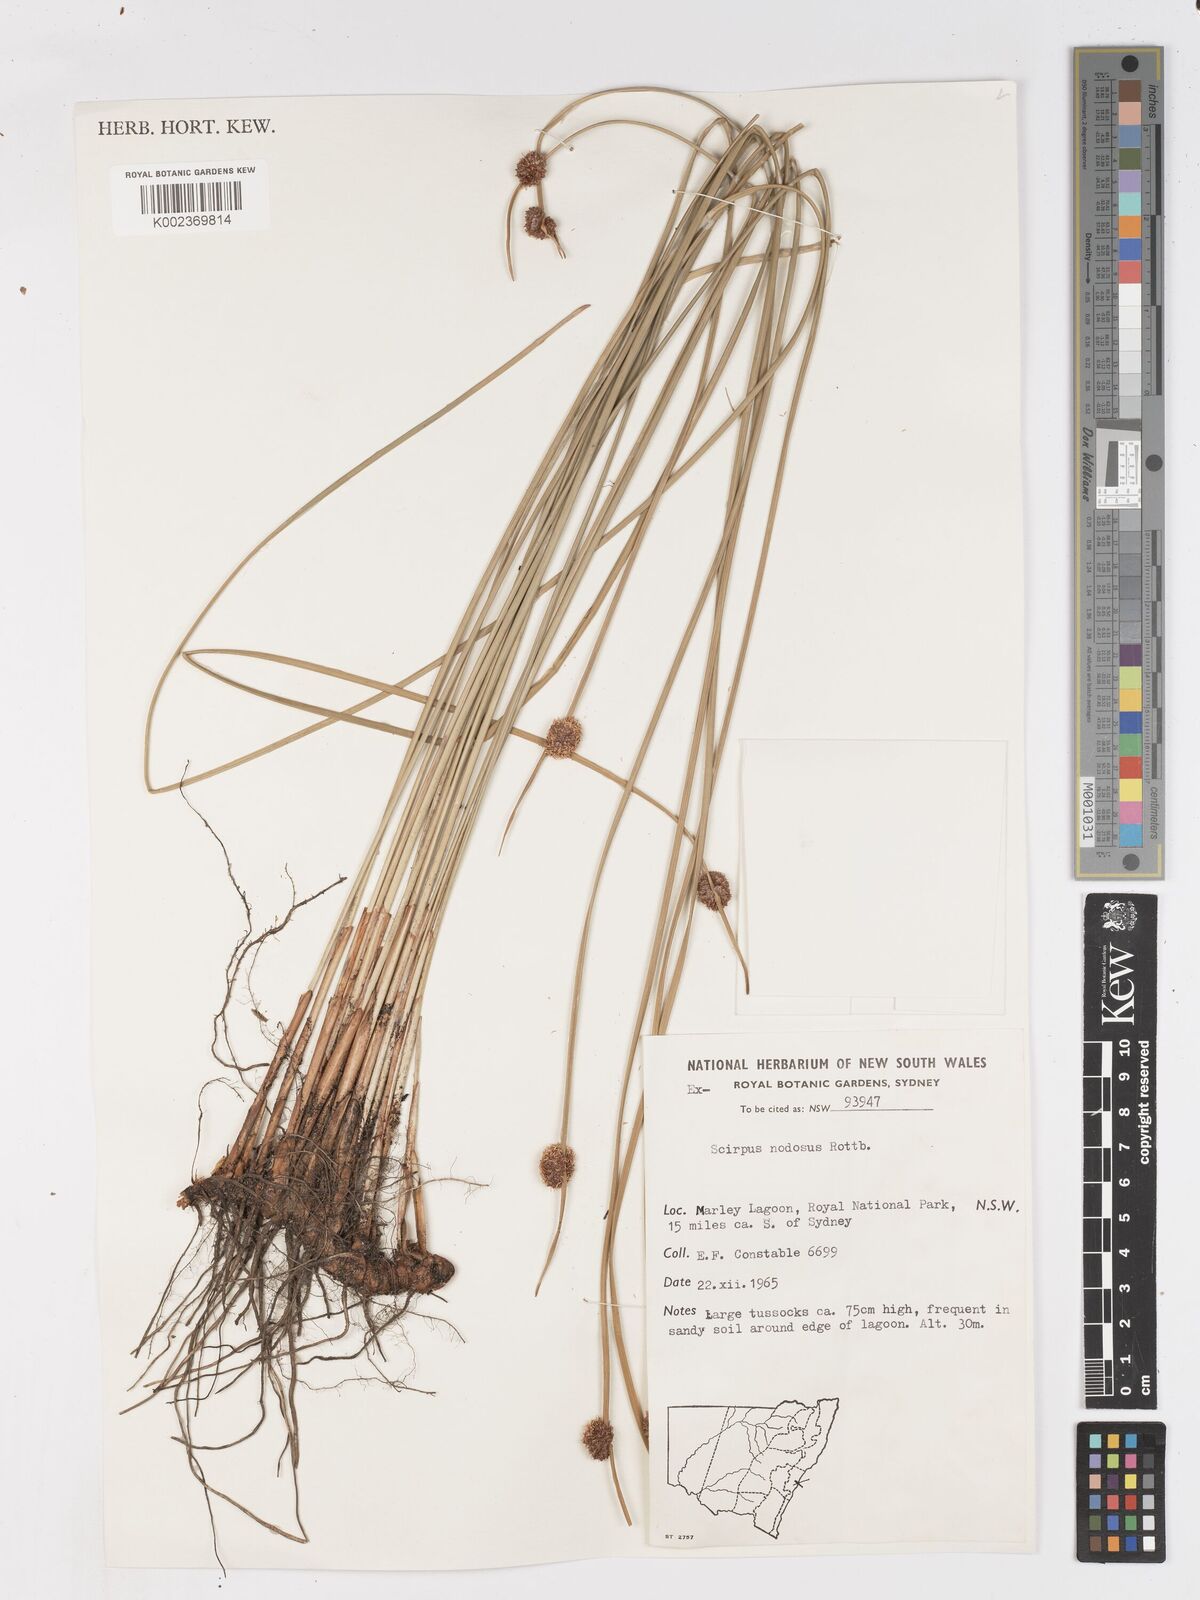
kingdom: Plantae
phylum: Tracheophyta
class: Liliopsida
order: Poales
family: Cyperaceae
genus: Ficinia
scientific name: Ficinia nodosa
